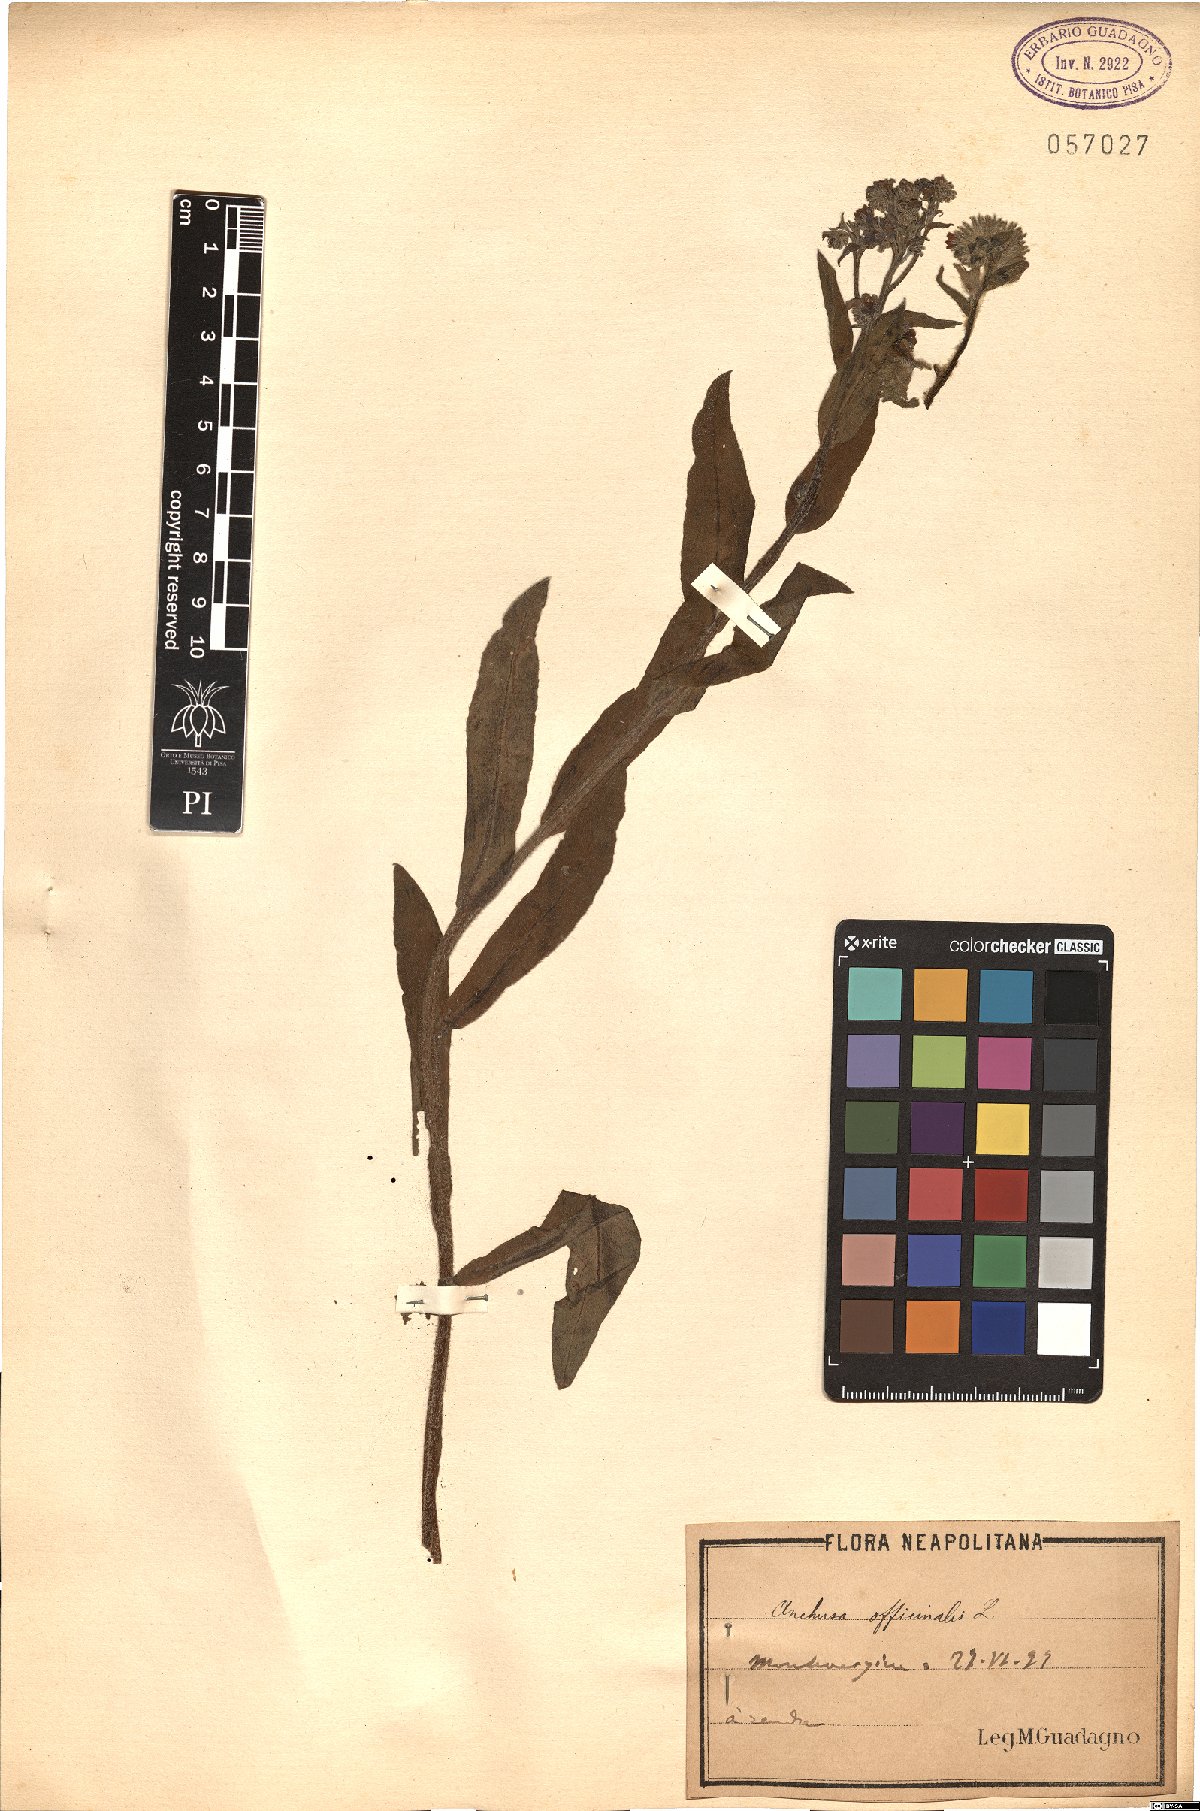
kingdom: Plantae
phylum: Tracheophyta
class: Magnoliopsida
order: Boraginales
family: Boraginaceae
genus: Anchusa
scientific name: Anchusa officinalis
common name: Alkanet
